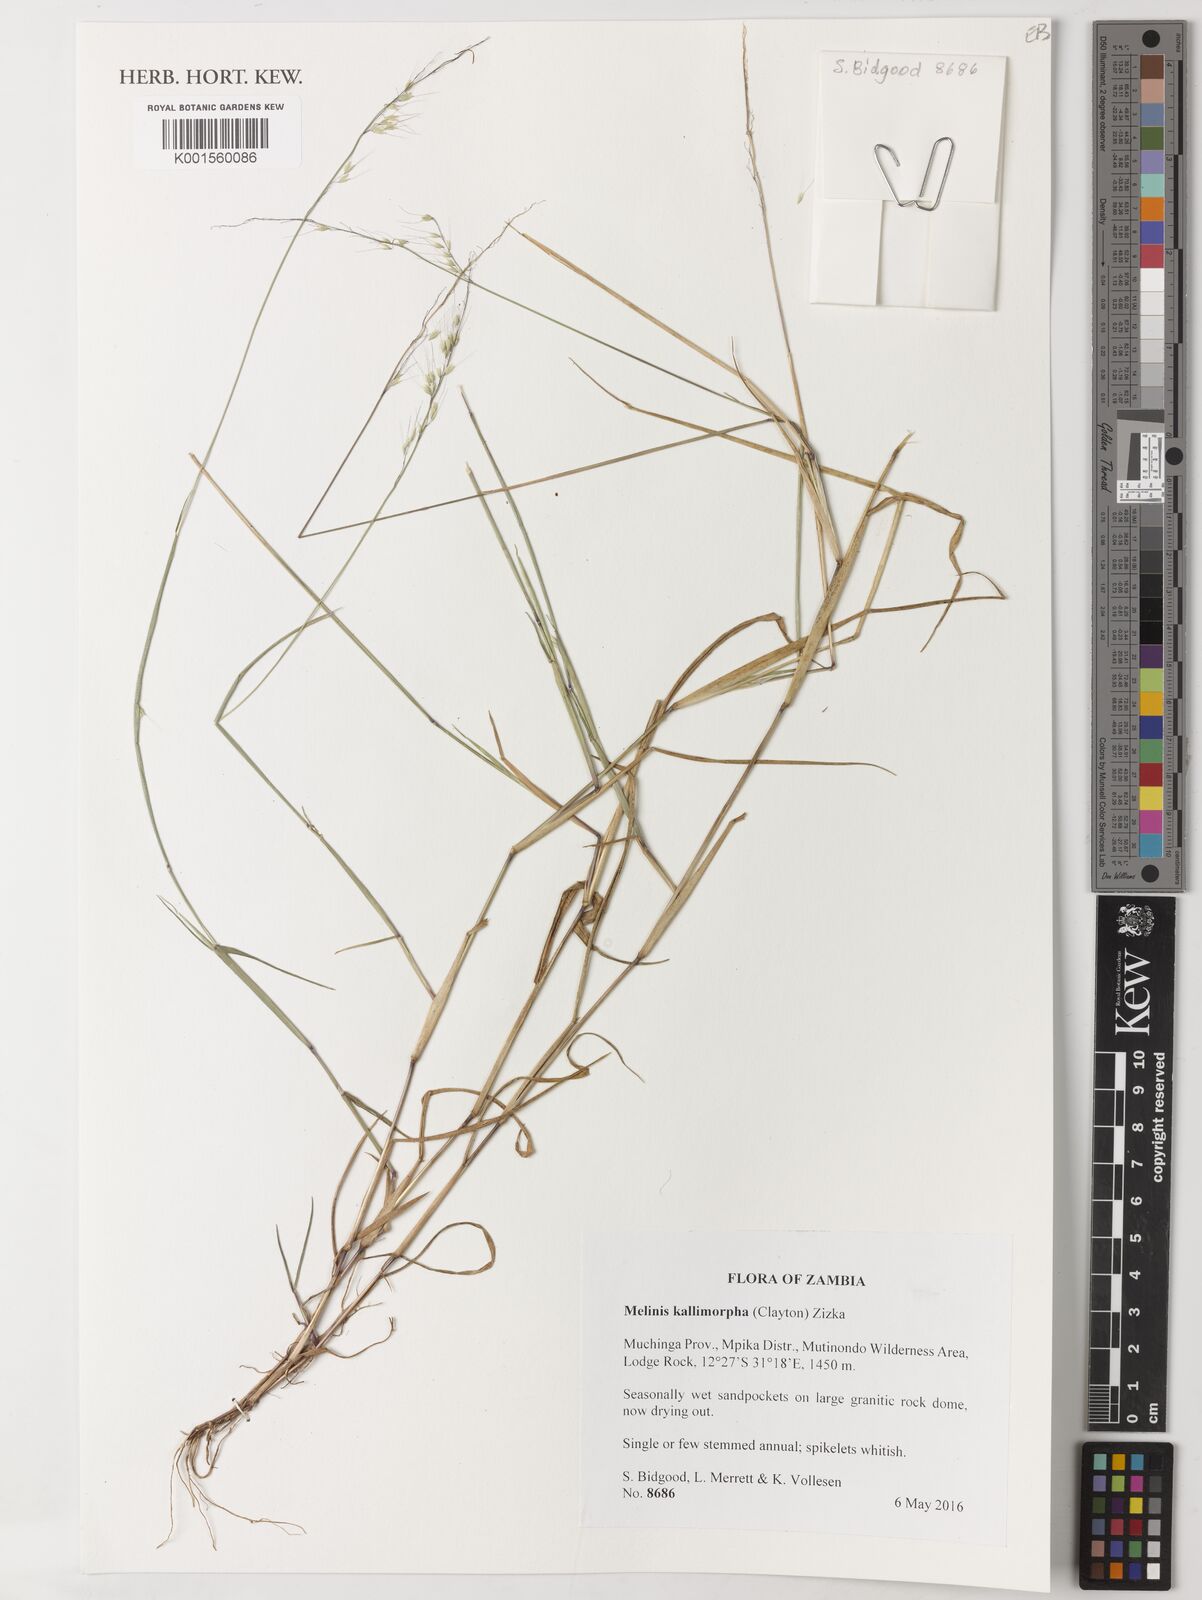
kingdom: Plantae
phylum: Tracheophyta
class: Liliopsida
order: Poales
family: Poaceae
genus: Melinis
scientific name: Melinis kallimorpha
